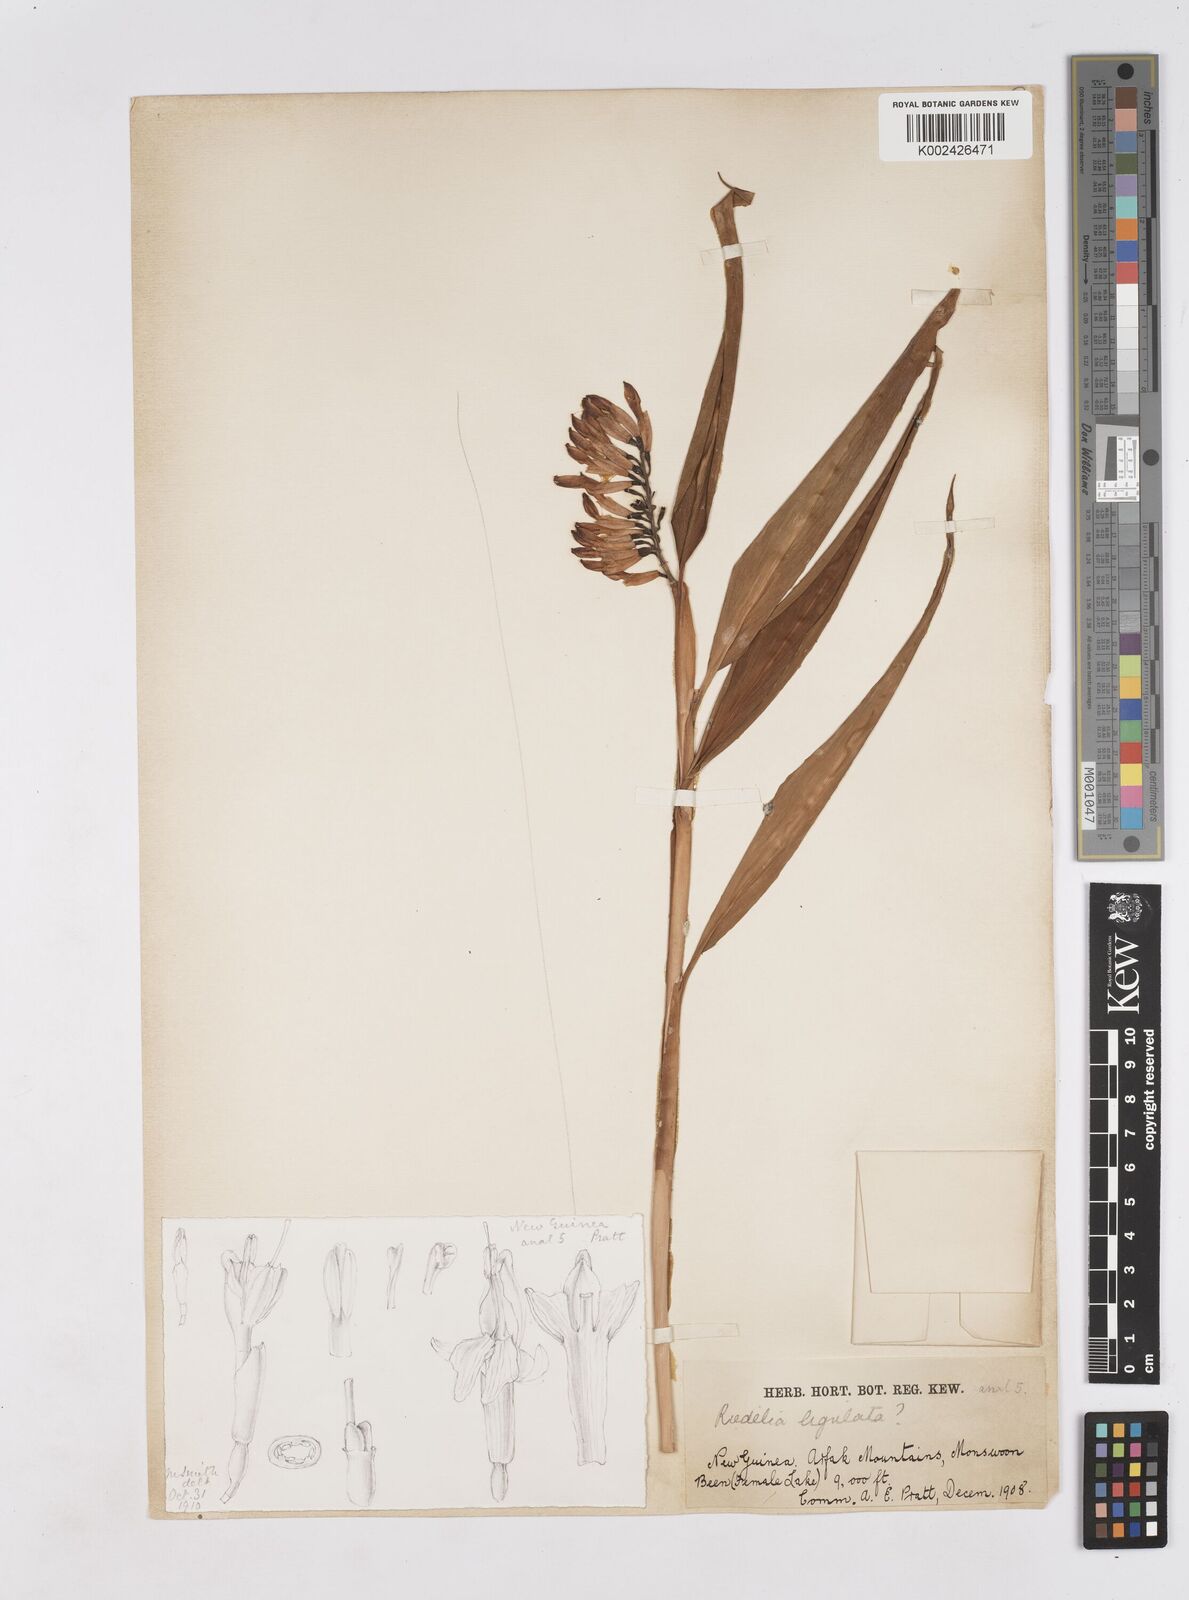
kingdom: Plantae
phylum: Tracheophyta
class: Liliopsida
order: Zingiberales
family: Zingiberaceae
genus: Riedelia
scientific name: Riedelia ligulata
